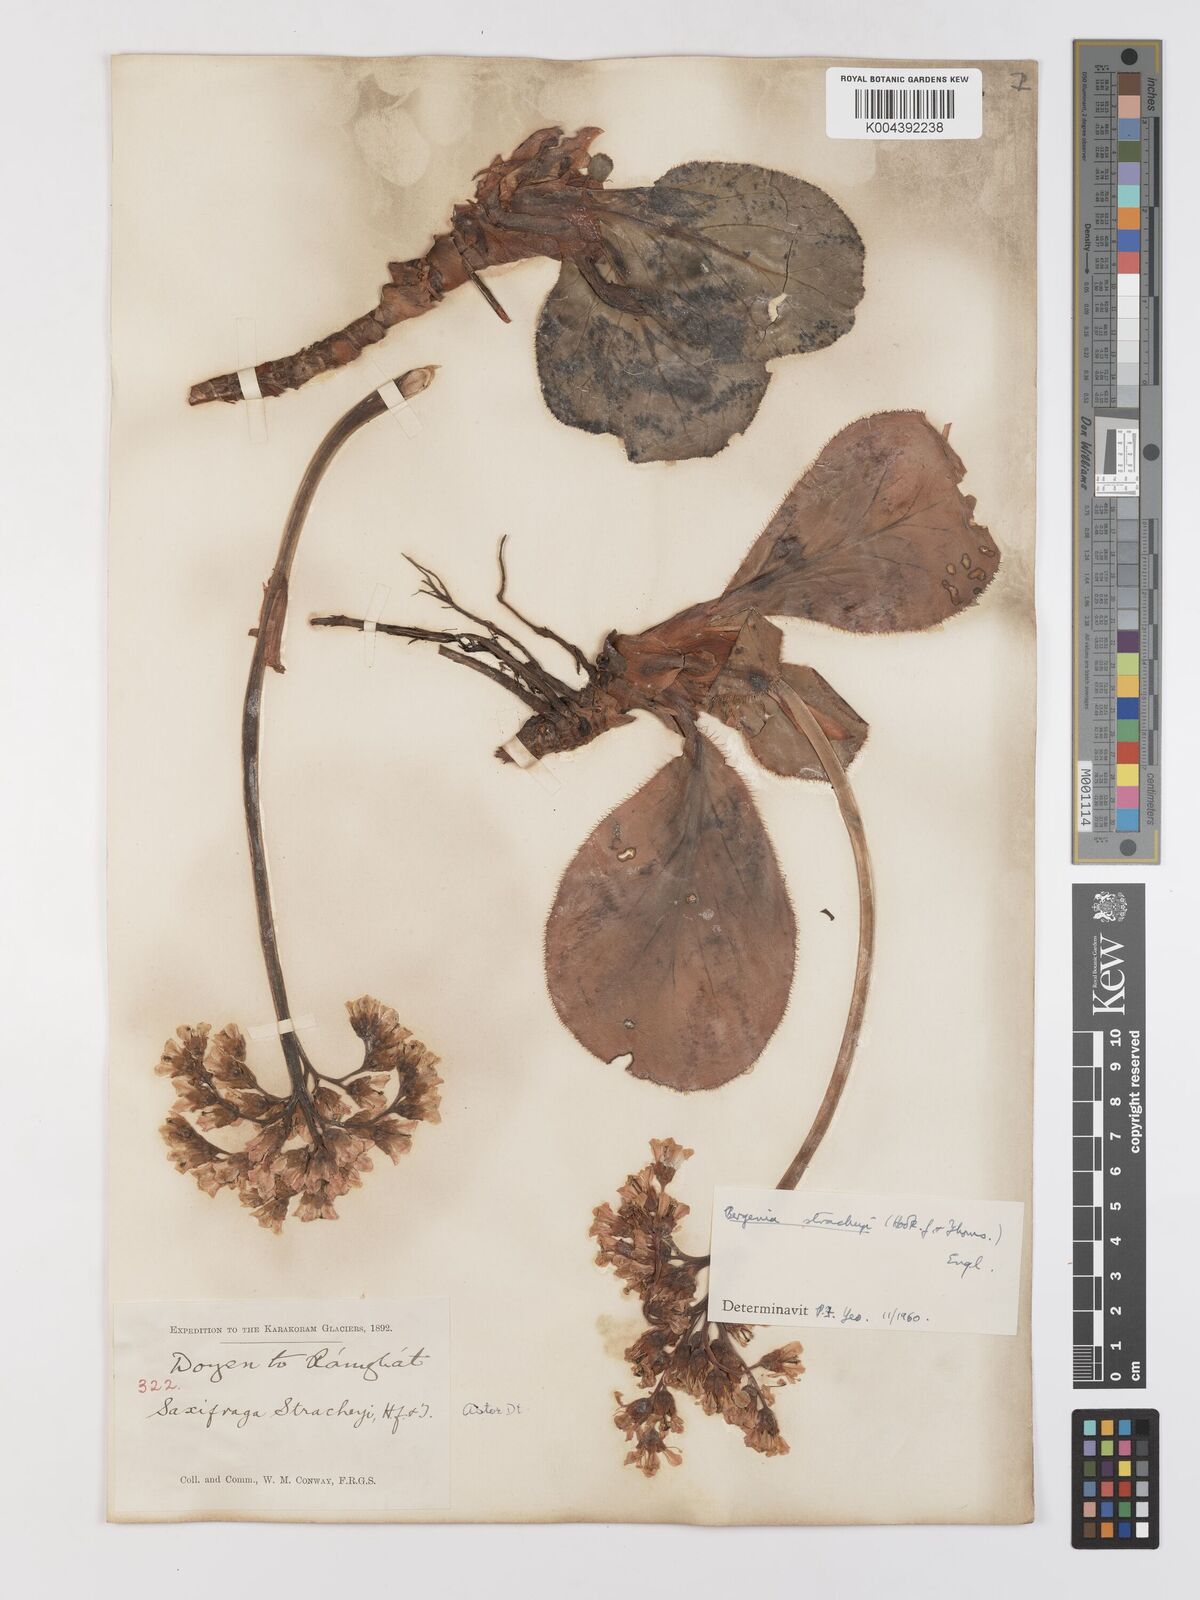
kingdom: Plantae
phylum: Tracheophyta
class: Magnoliopsida
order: Saxifragales
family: Saxifragaceae
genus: Bergenia
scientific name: Bergenia stracheyi
